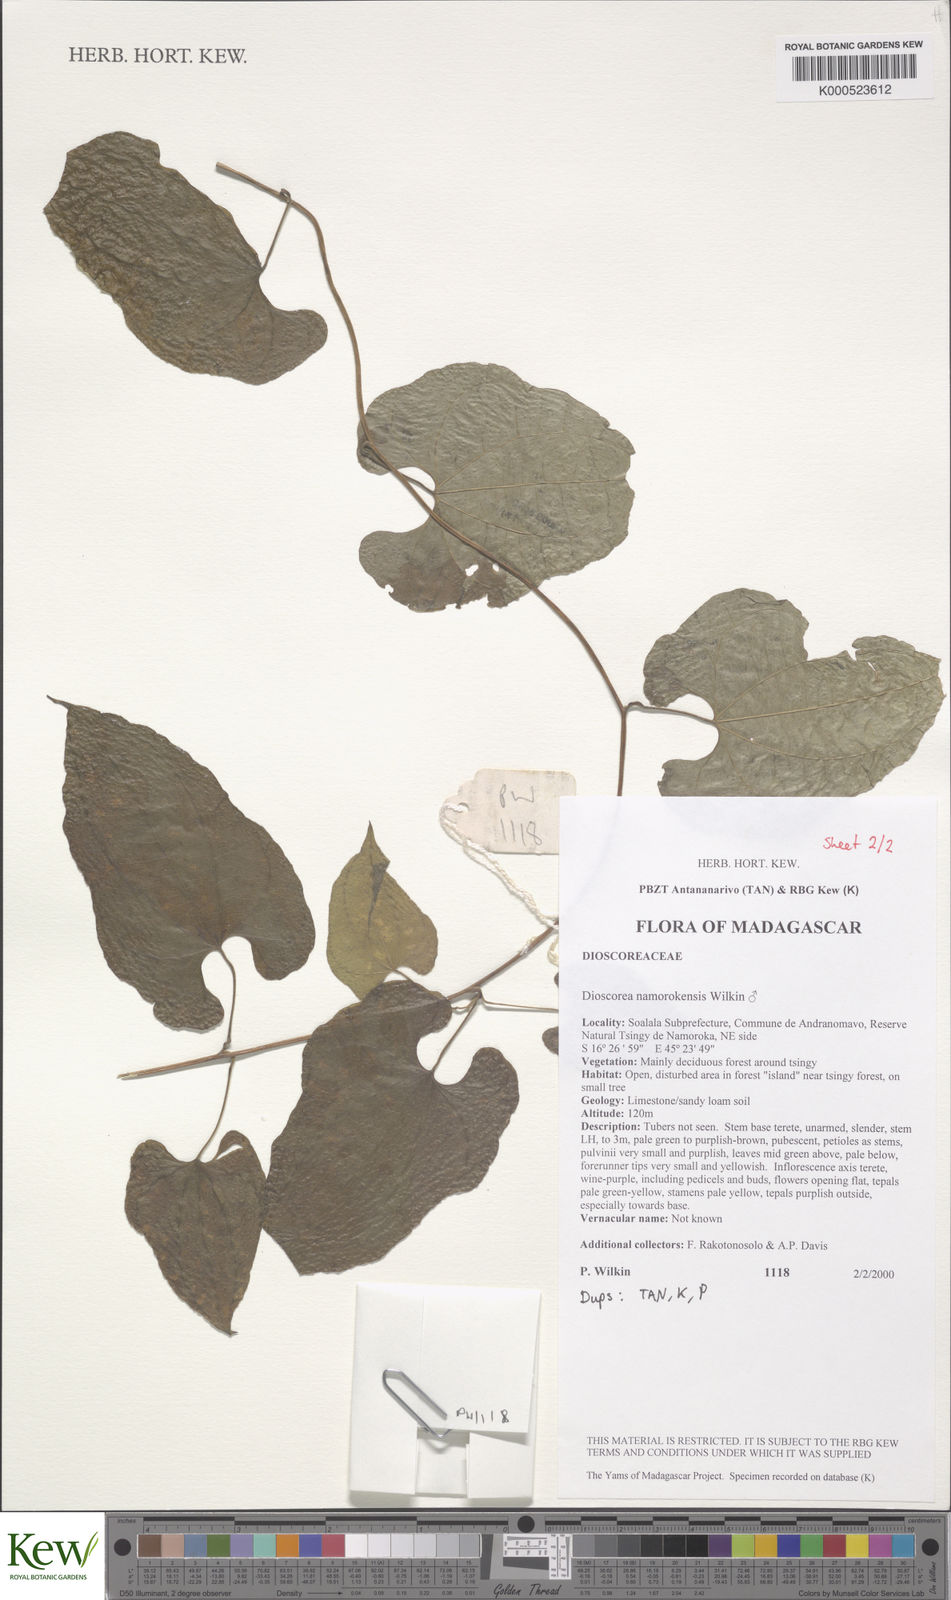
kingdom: Plantae
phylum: Tracheophyta
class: Liliopsida
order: Dioscoreales
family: Dioscoreaceae
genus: Dioscorea
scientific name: Dioscorea namorokensis
